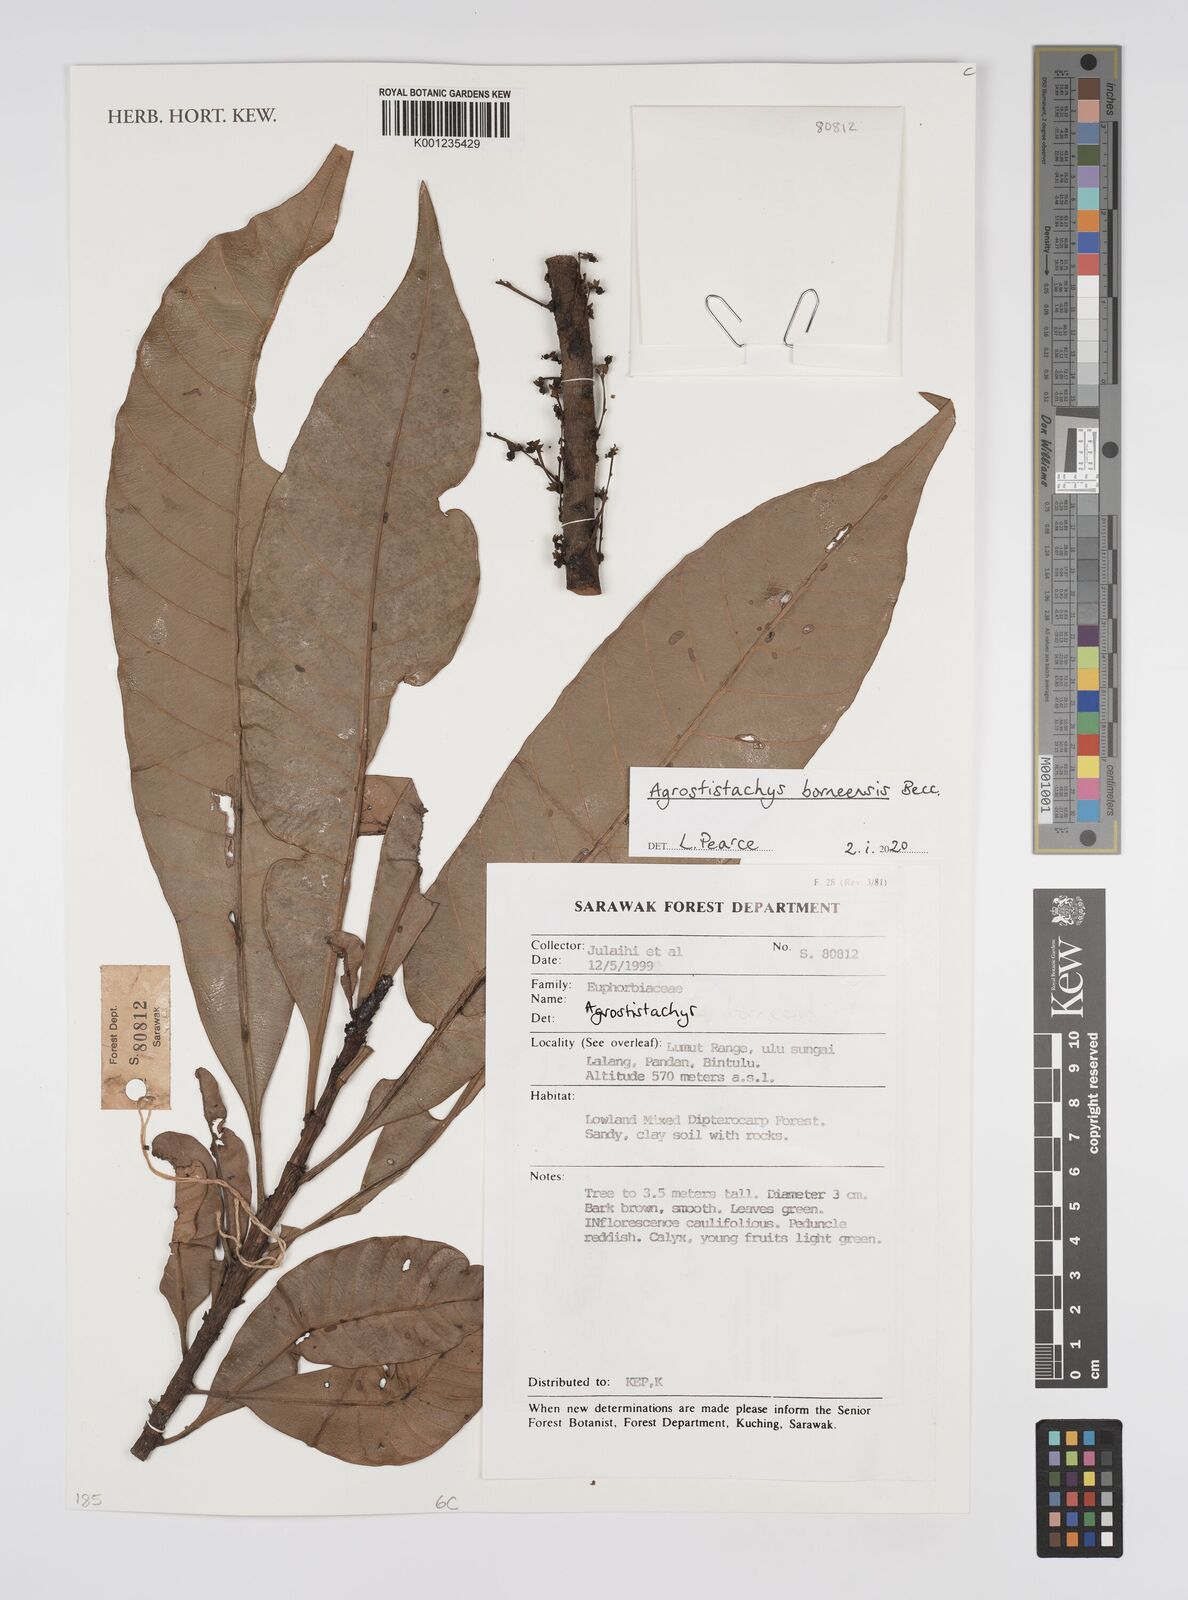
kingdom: Plantae
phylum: Tracheophyta
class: Magnoliopsida
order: Malpighiales
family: Euphorbiaceae
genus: Agrostistachys
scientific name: Agrostistachys borneensis
